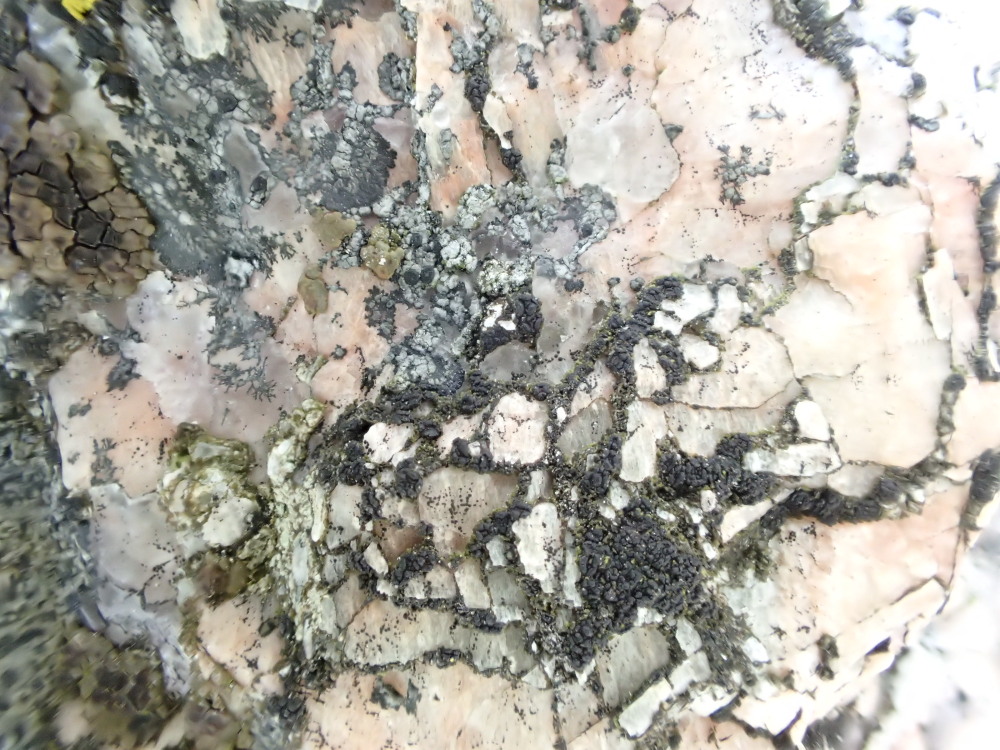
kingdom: Fungi
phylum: Ascomycota
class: Lecanoromycetes
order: Acarosporales
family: Acarosporaceae
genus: Acarospora
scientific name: Acarospora privigna
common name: sort foldekantlav
